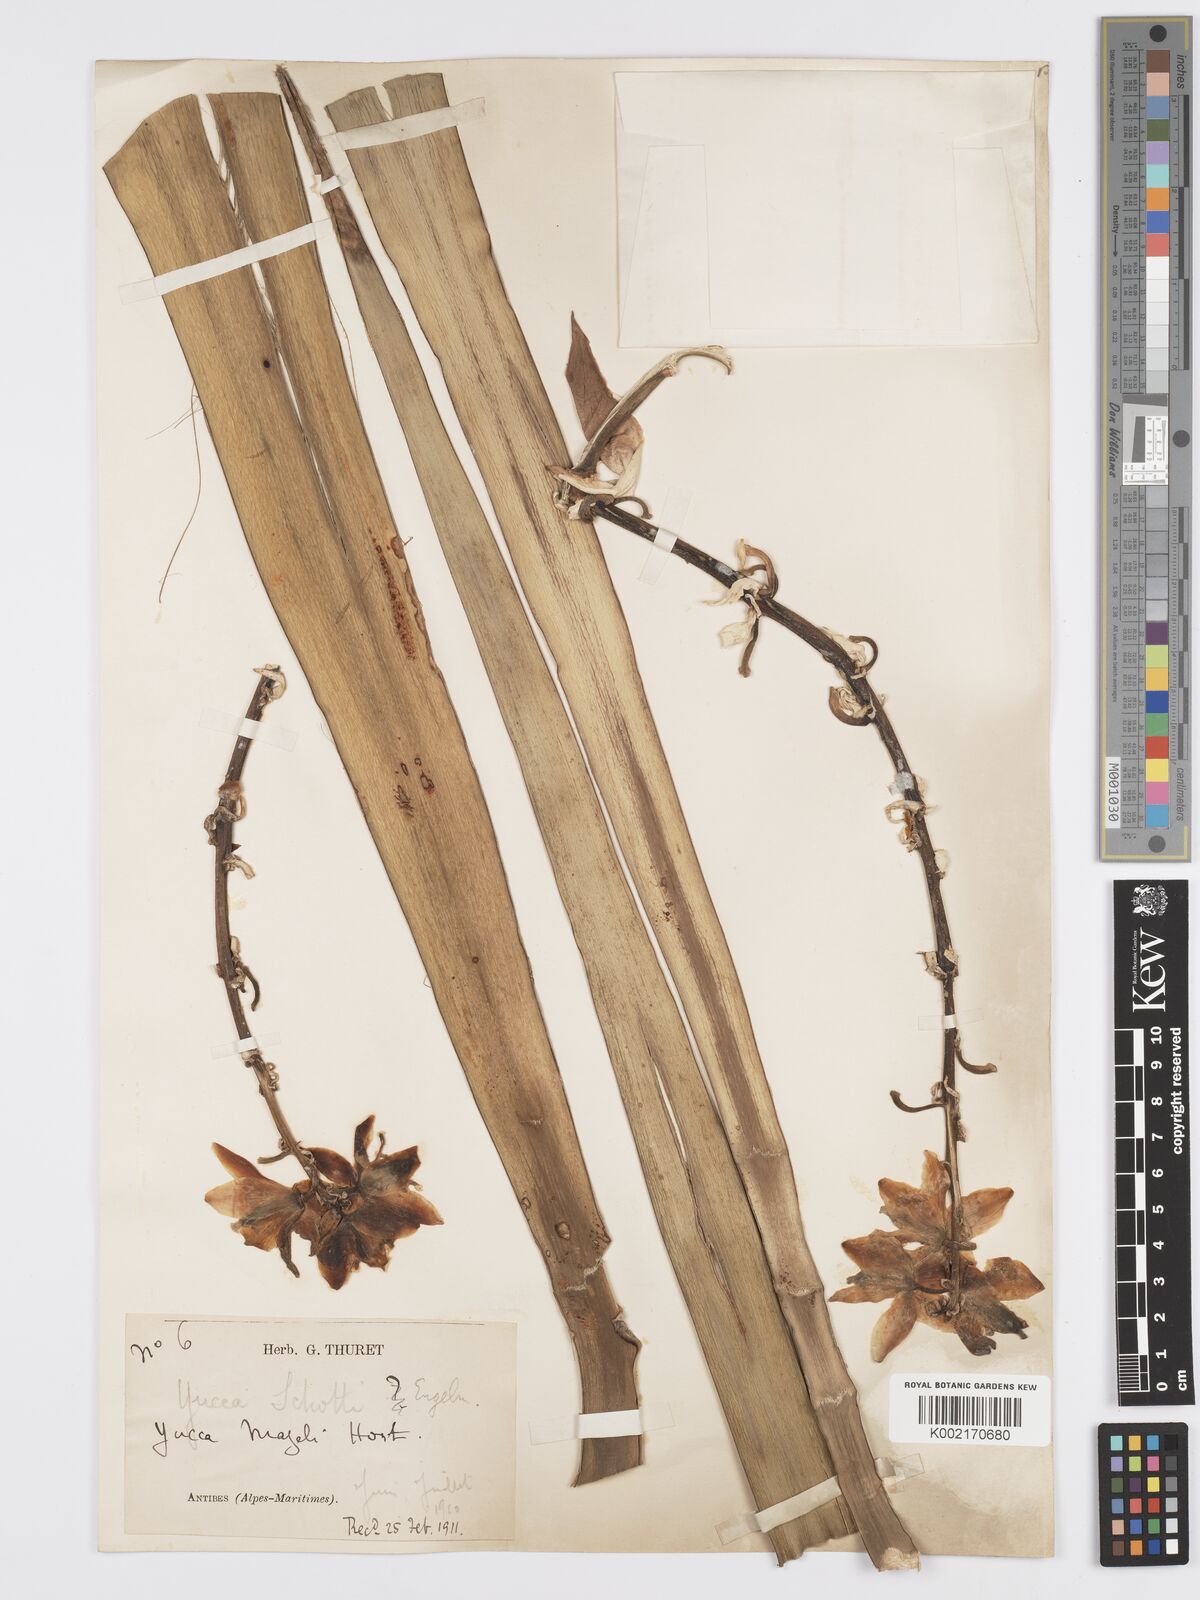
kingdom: Plantae
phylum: Tracheophyta
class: Liliopsida
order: Asparagales
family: Asparagaceae
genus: Yucca
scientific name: Yucca schottii
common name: Hoary yucca
